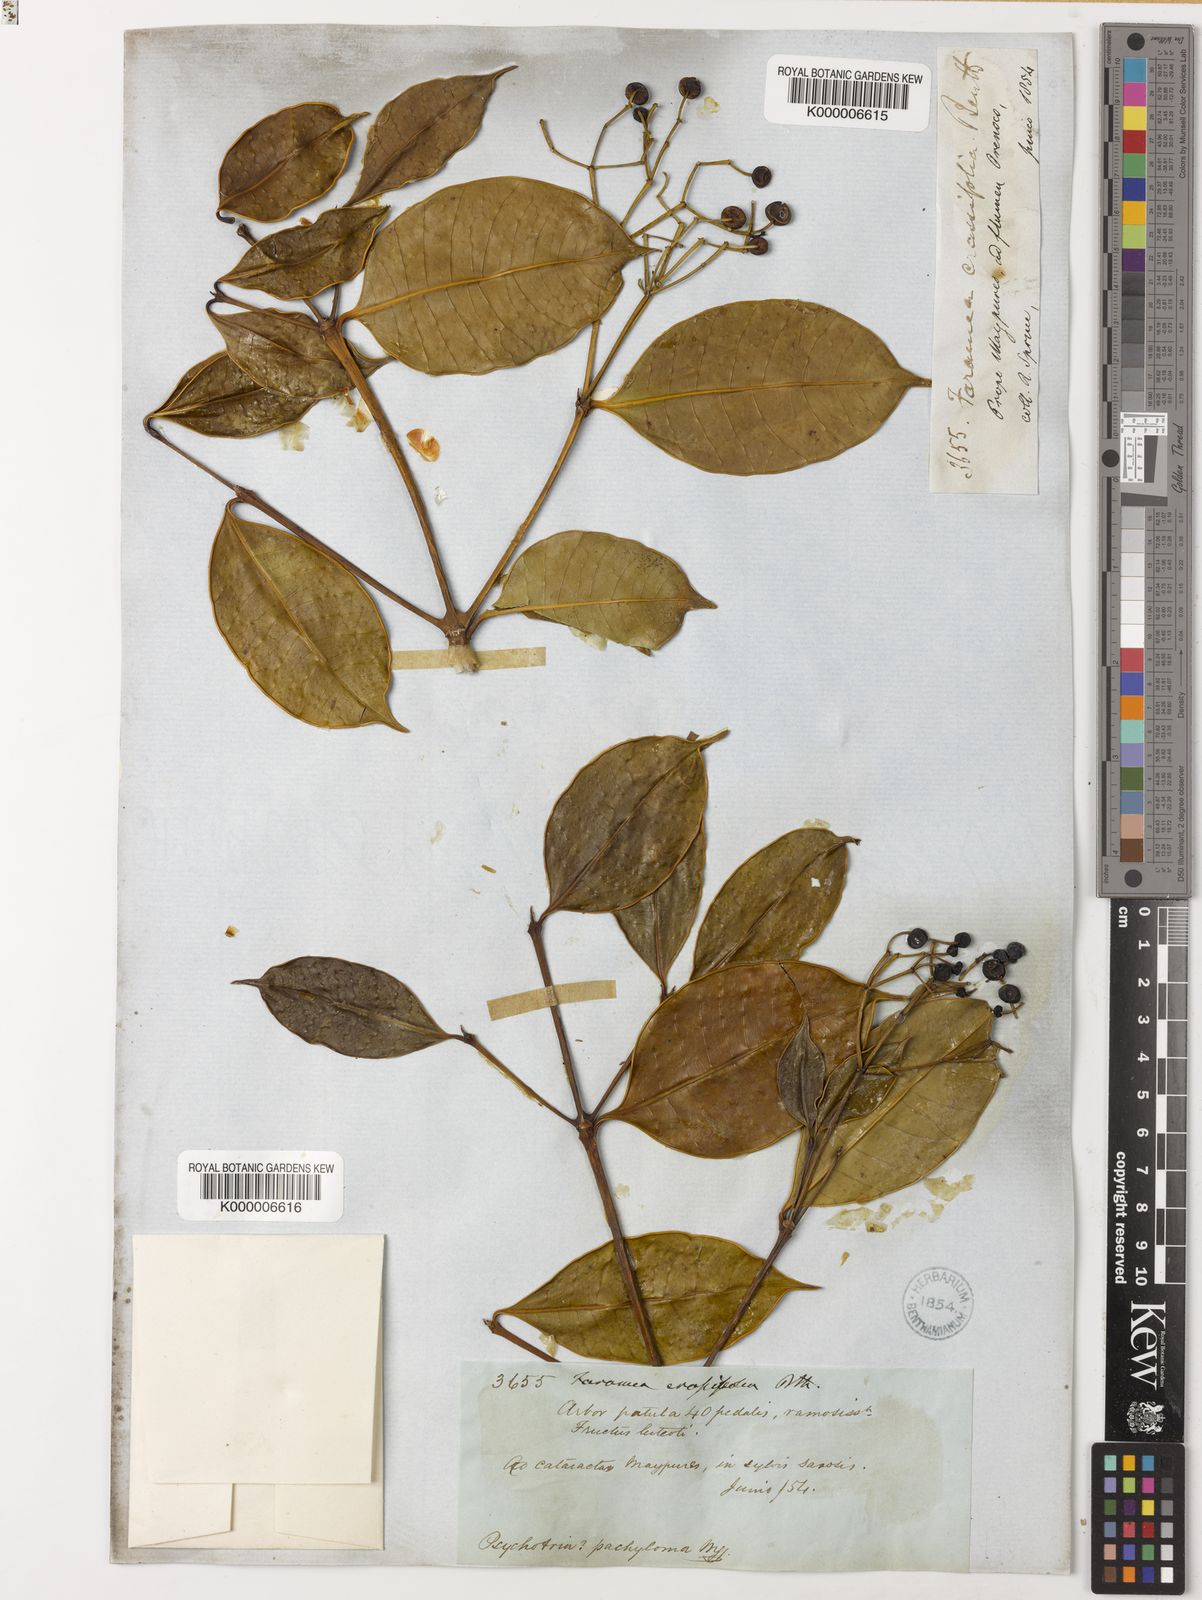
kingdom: Plantae
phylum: Tracheophyta
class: Magnoliopsida
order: Gentianales
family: Rubiaceae
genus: Faramea
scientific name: Faramea crassifolia
